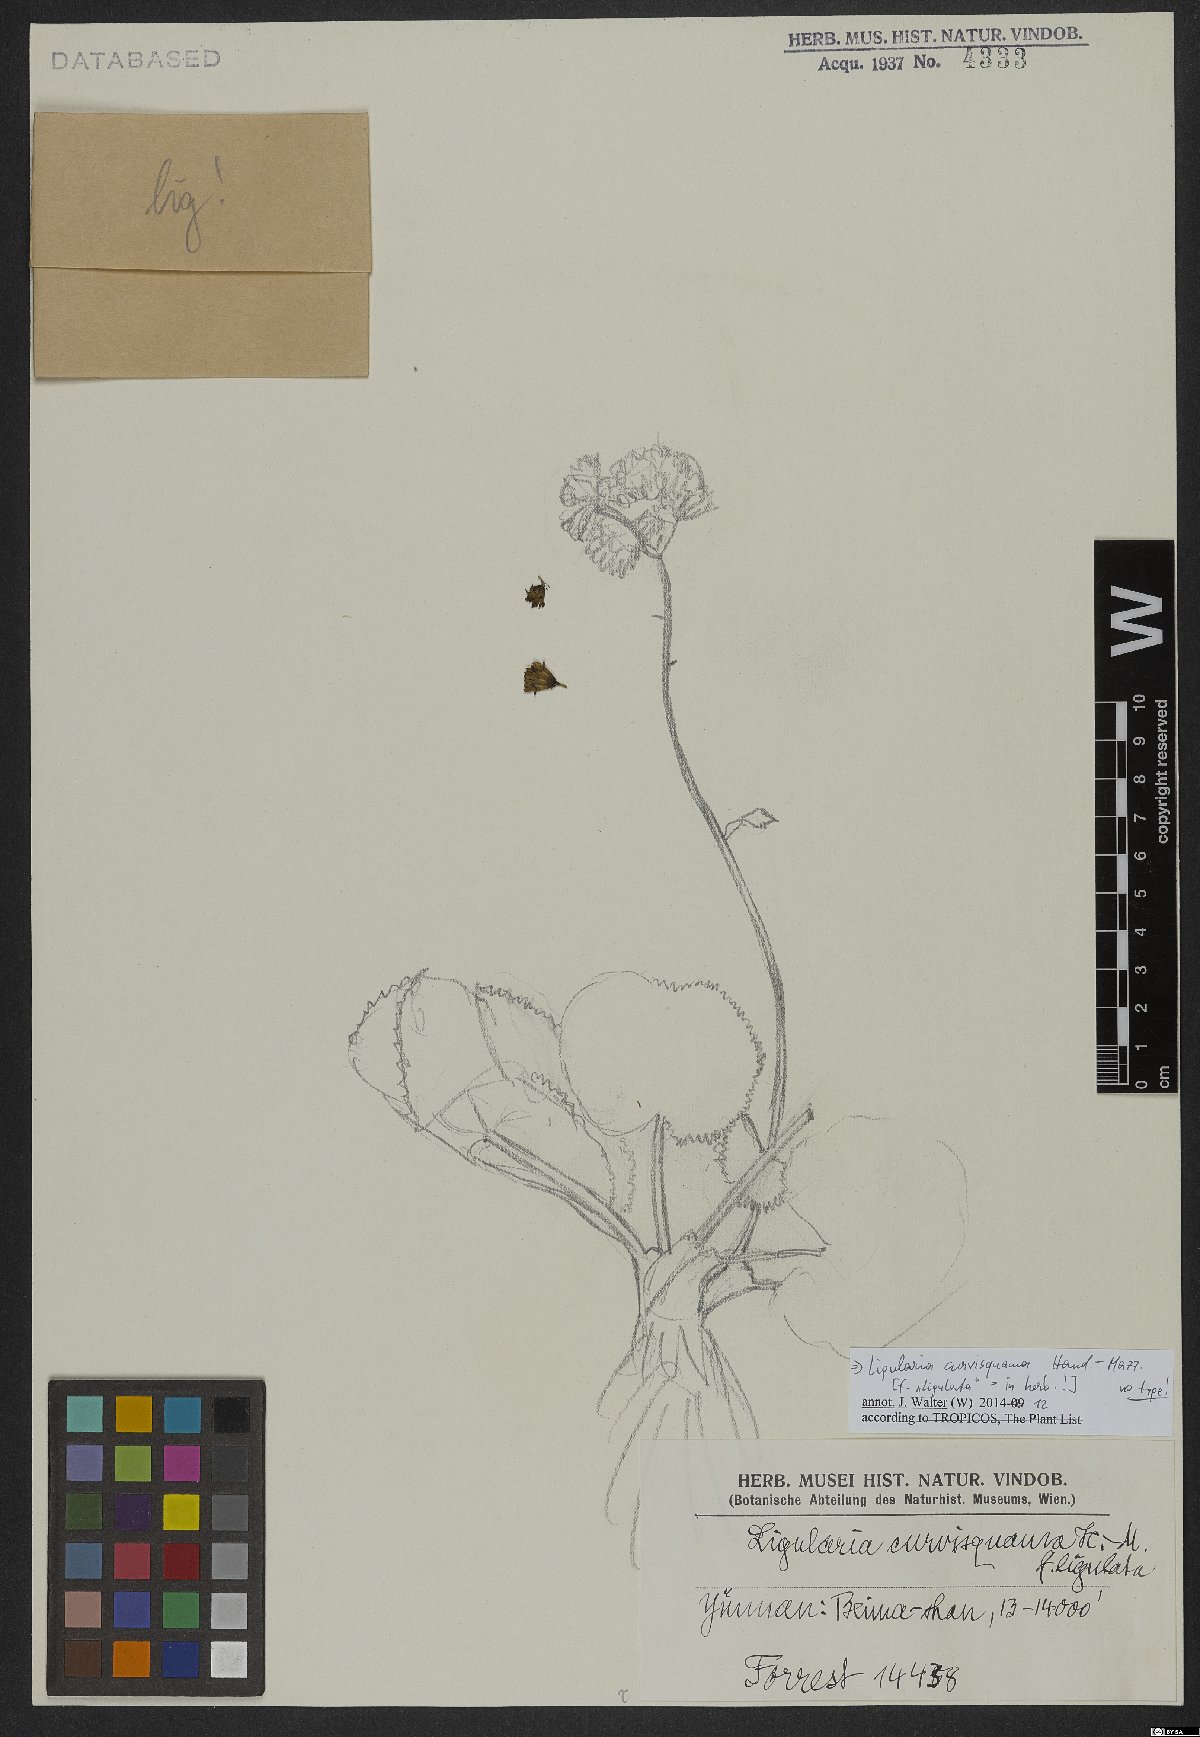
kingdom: Plantae
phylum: Tracheophyta
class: Magnoliopsida
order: Asterales
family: Asteraceae
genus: Ligularia
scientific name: Ligularia curvisquama
